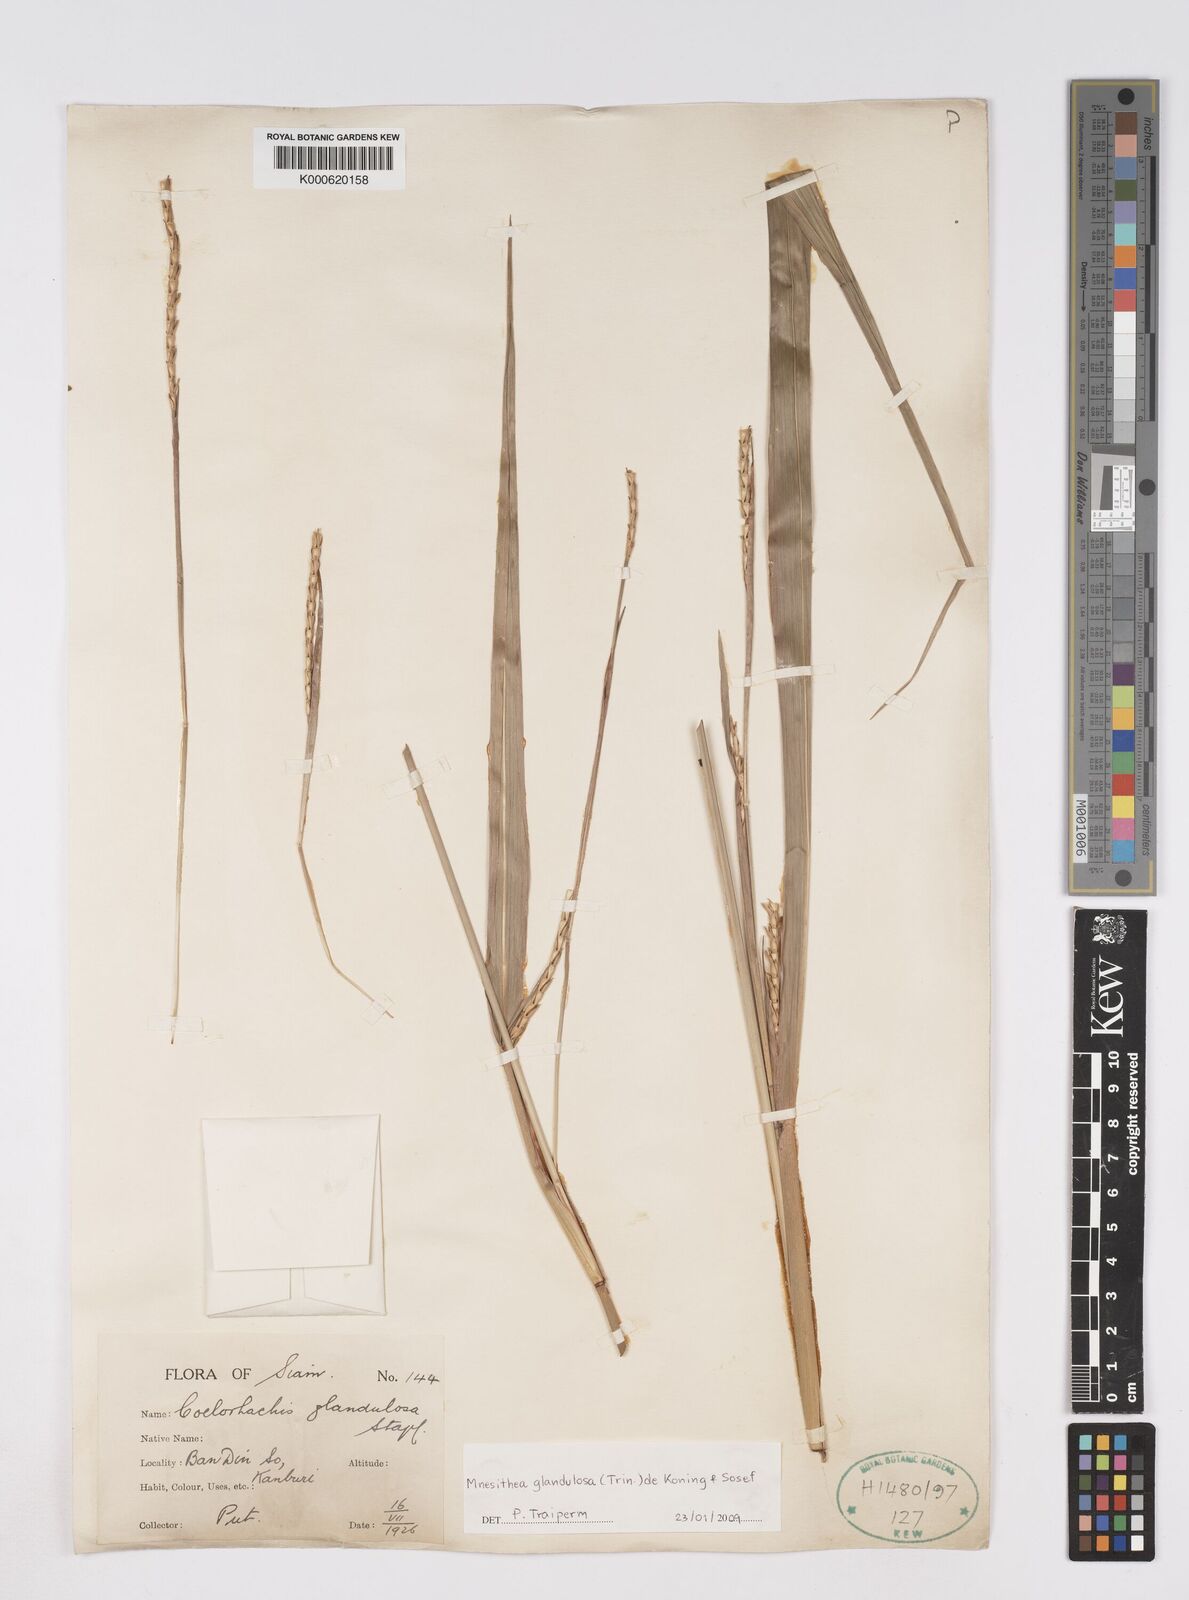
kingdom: Plantae
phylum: Tracheophyta
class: Liliopsida
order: Poales
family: Poaceae
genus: Rottboellia
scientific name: Rottboellia glandulosa
